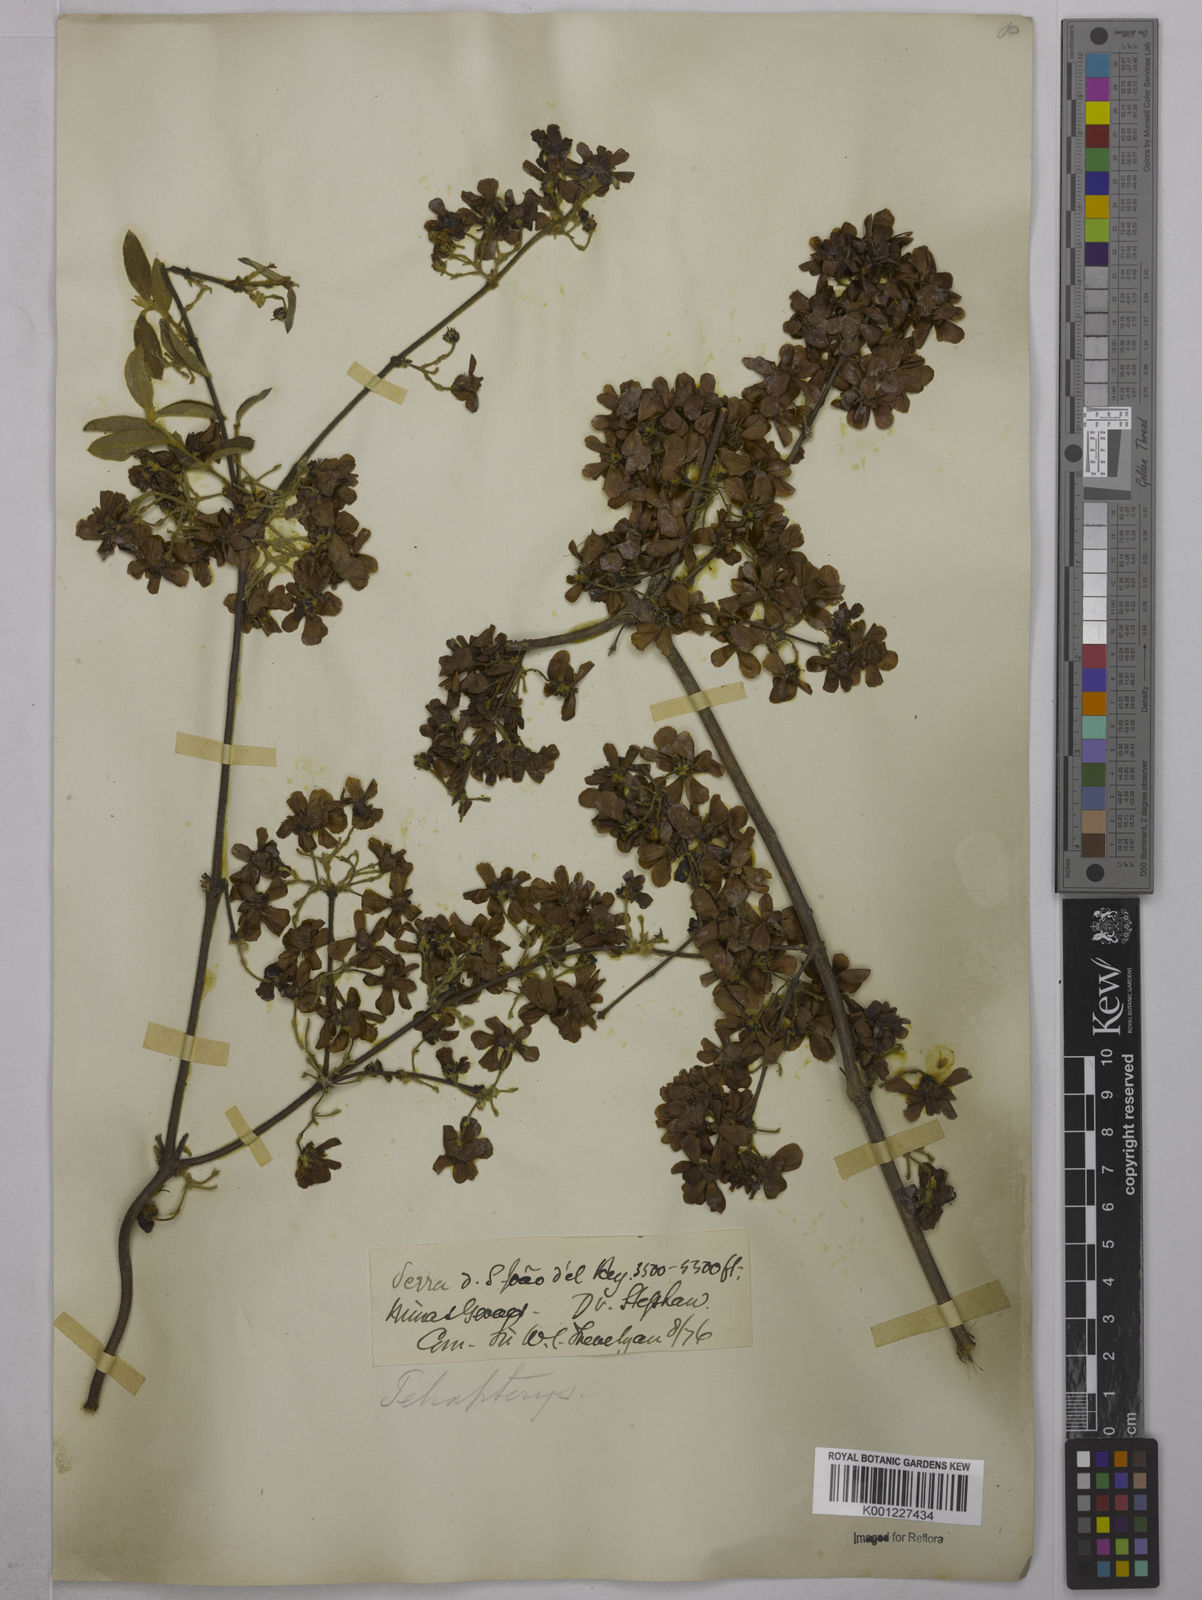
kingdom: Plantae
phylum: Tracheophyta
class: Magnoliopsida
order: Malpighiales
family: Malpighiaceae
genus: Tetrapterys
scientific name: Tetrapterys
